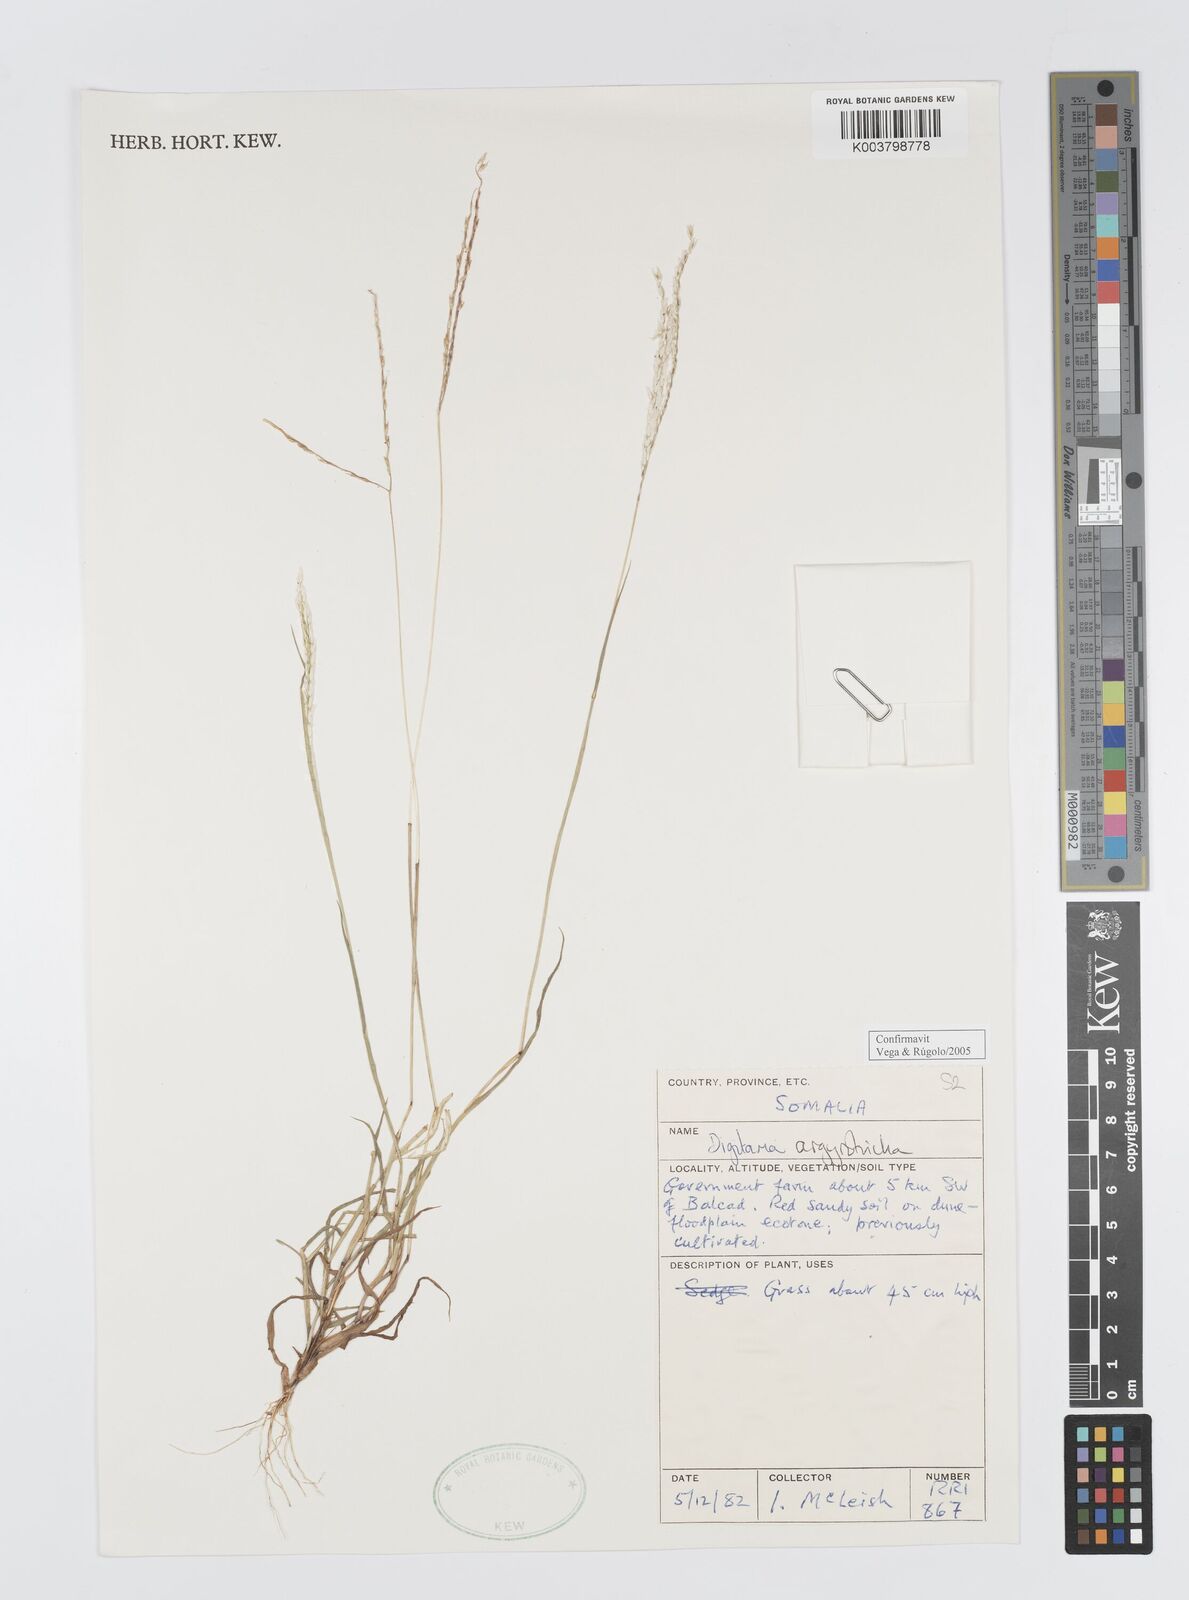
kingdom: Plantae
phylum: Tracheophyta
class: Liliopsida
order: Poales
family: Poaceae
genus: Digitaria
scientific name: Digitaria argyrotricha
